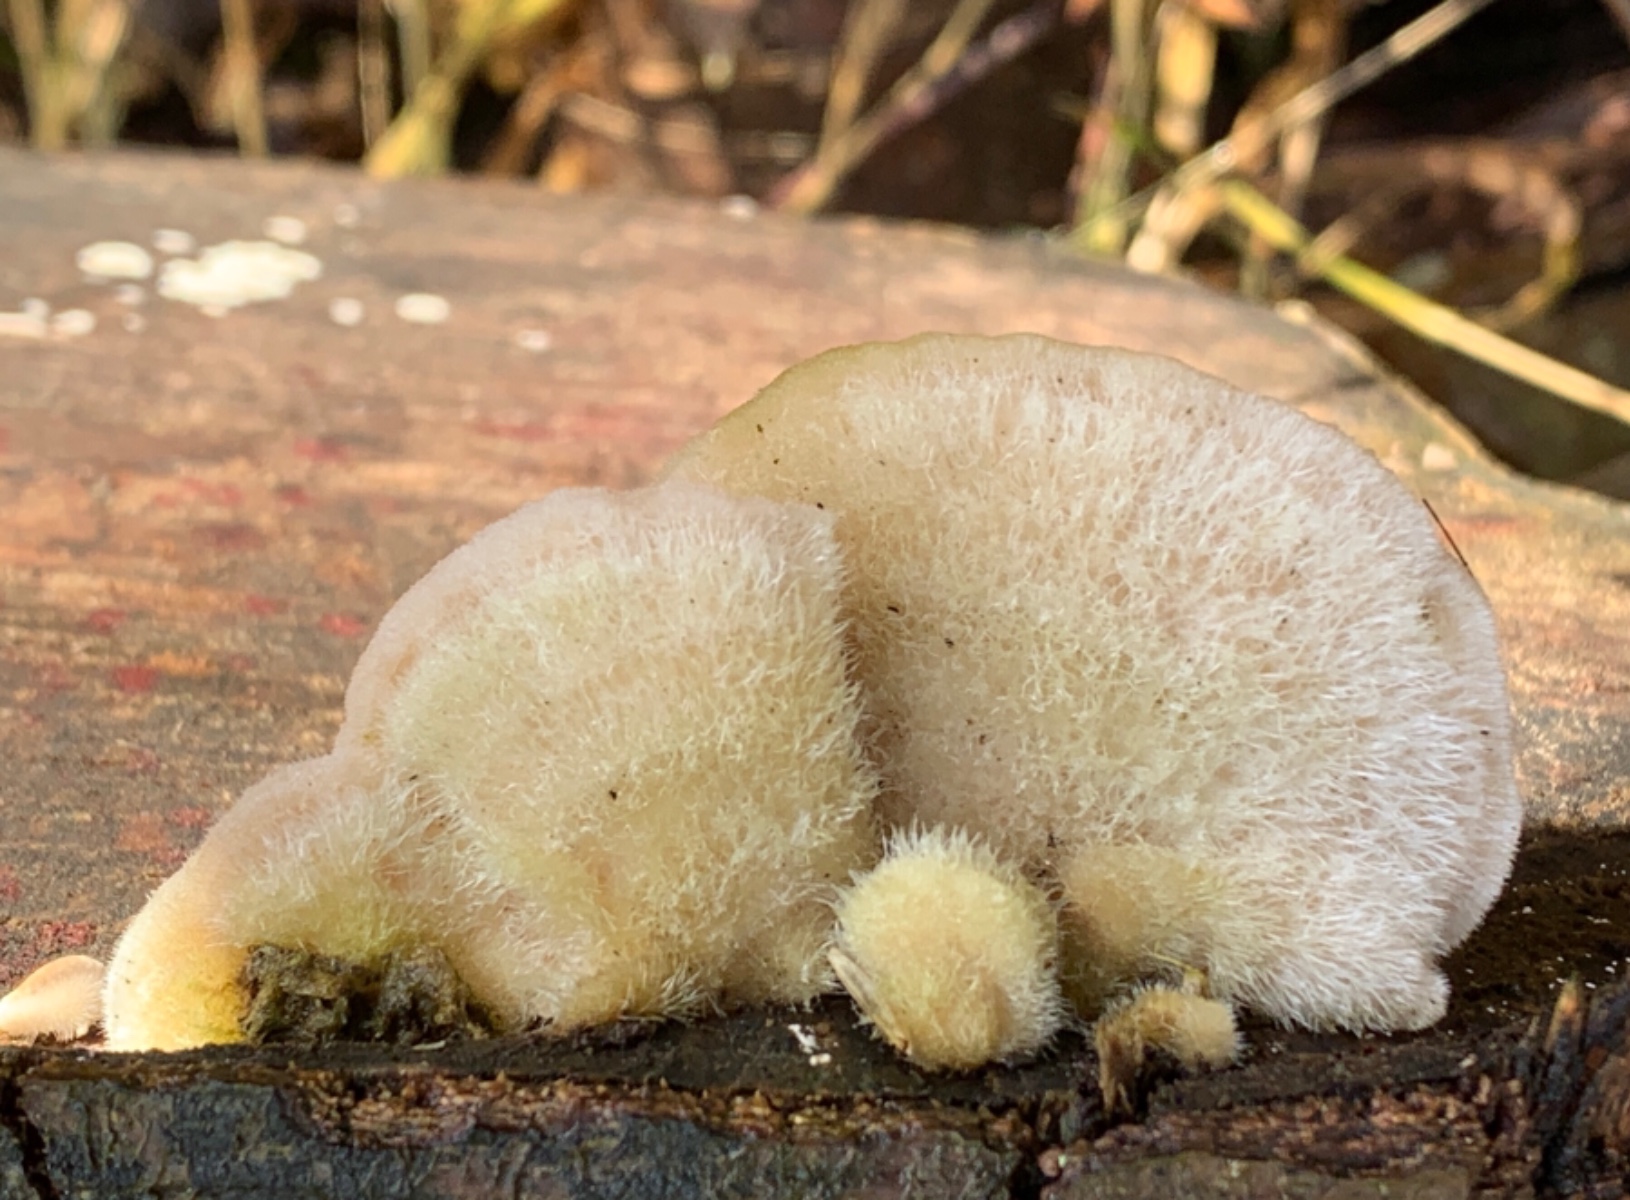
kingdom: Fungi
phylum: Basidiomycota
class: Agaricomycetes
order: Polyporales
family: Polyporaceae
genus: Trametes
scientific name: Trametes hirsuta
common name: håret læderporesvamp
